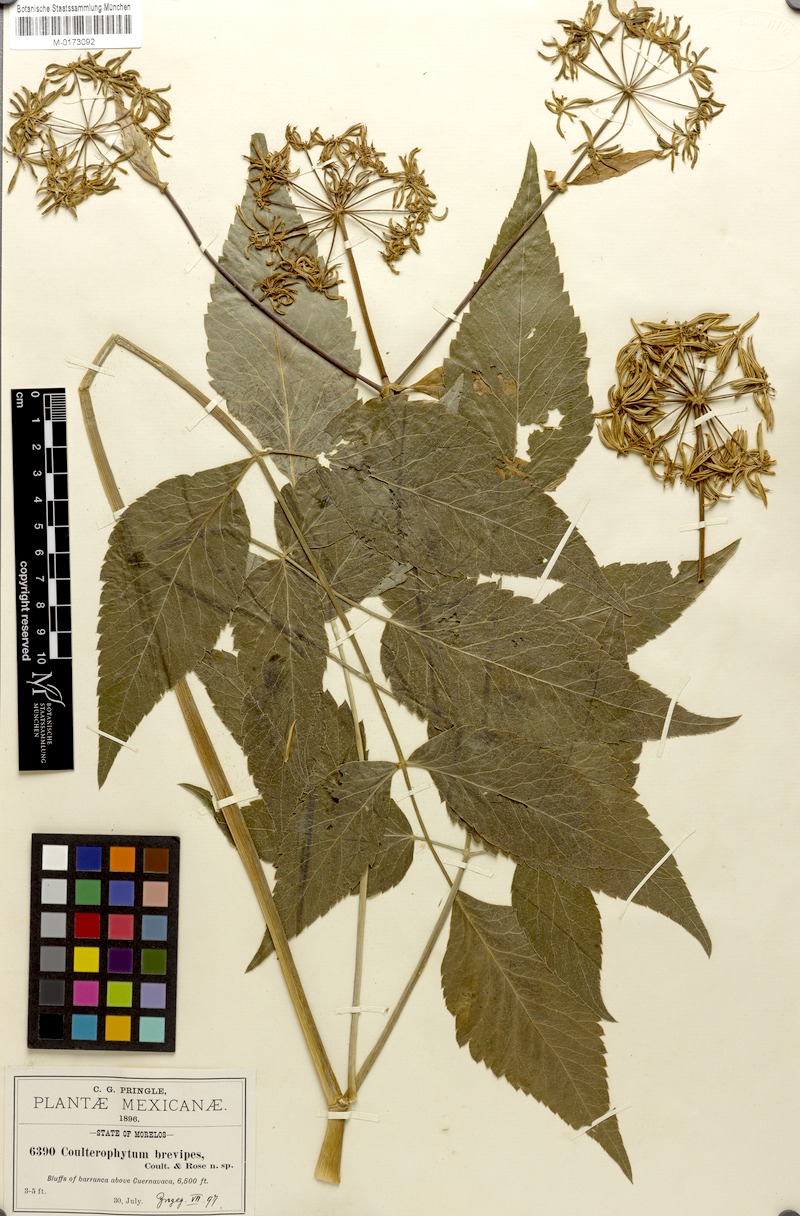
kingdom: Plantae
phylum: Tracheophyta
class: Magnoliopsida
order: Apiales
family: Apiaceae
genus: Arracacia
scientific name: Arracacia quadrifida
